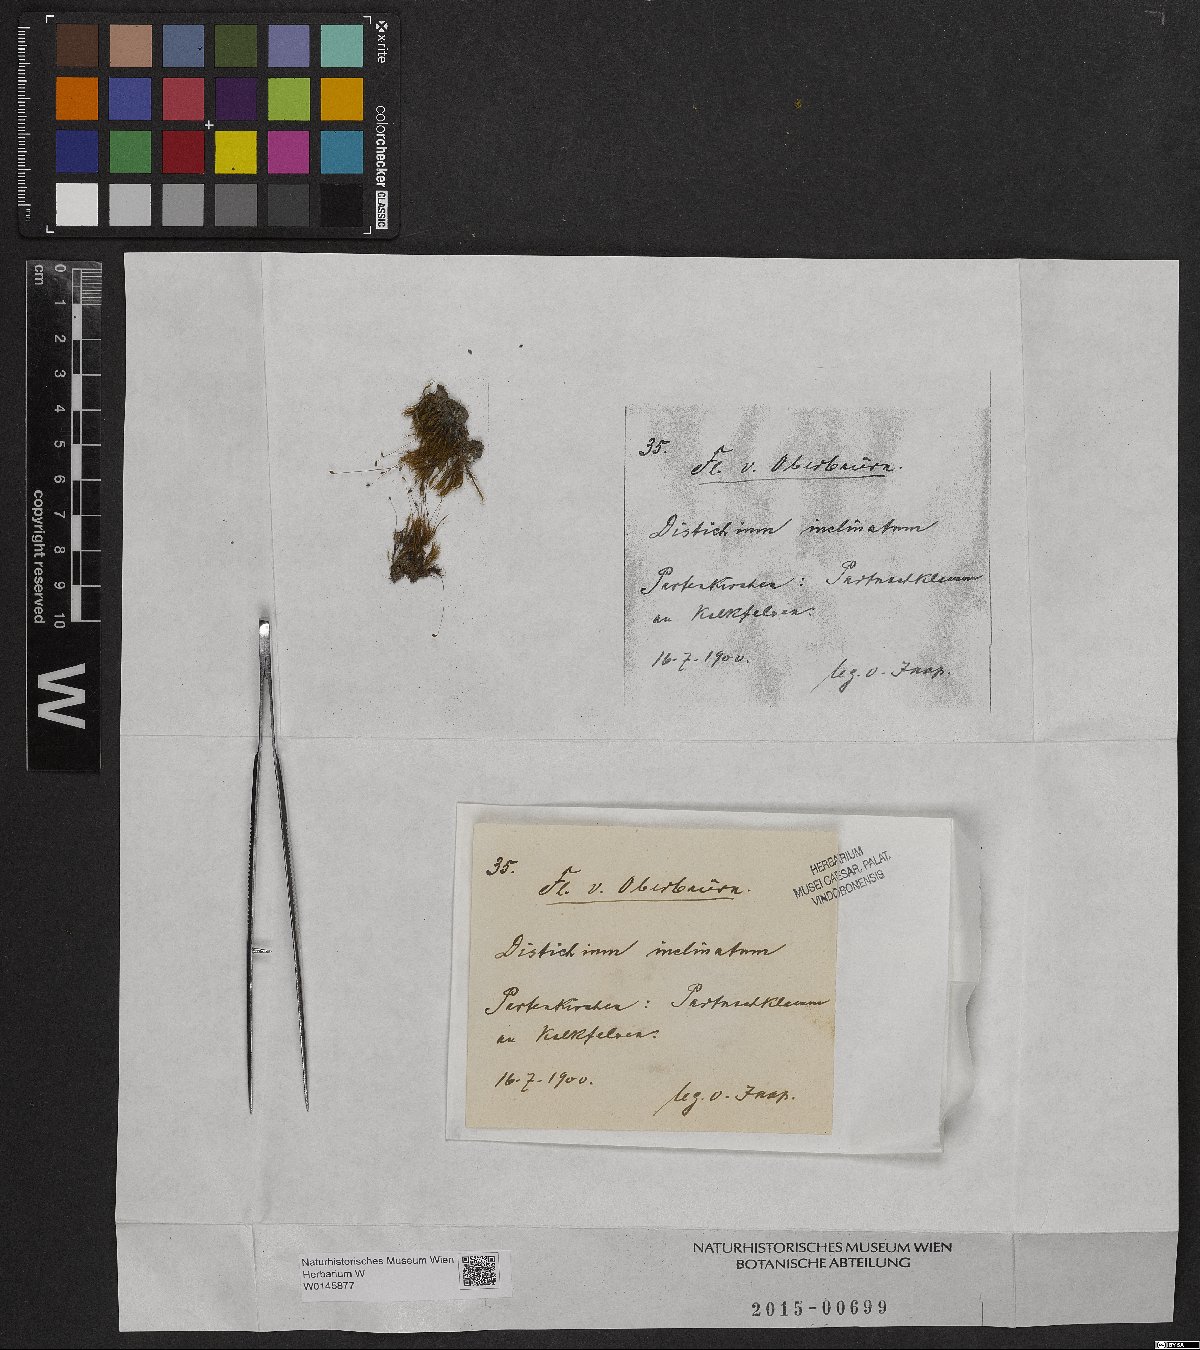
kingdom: Plantae
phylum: Bryophyta
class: Bryopsida
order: Scouleriales
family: Distichiaceae
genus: Distichium
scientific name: Distichium inclinatum
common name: Inclined iris moss
